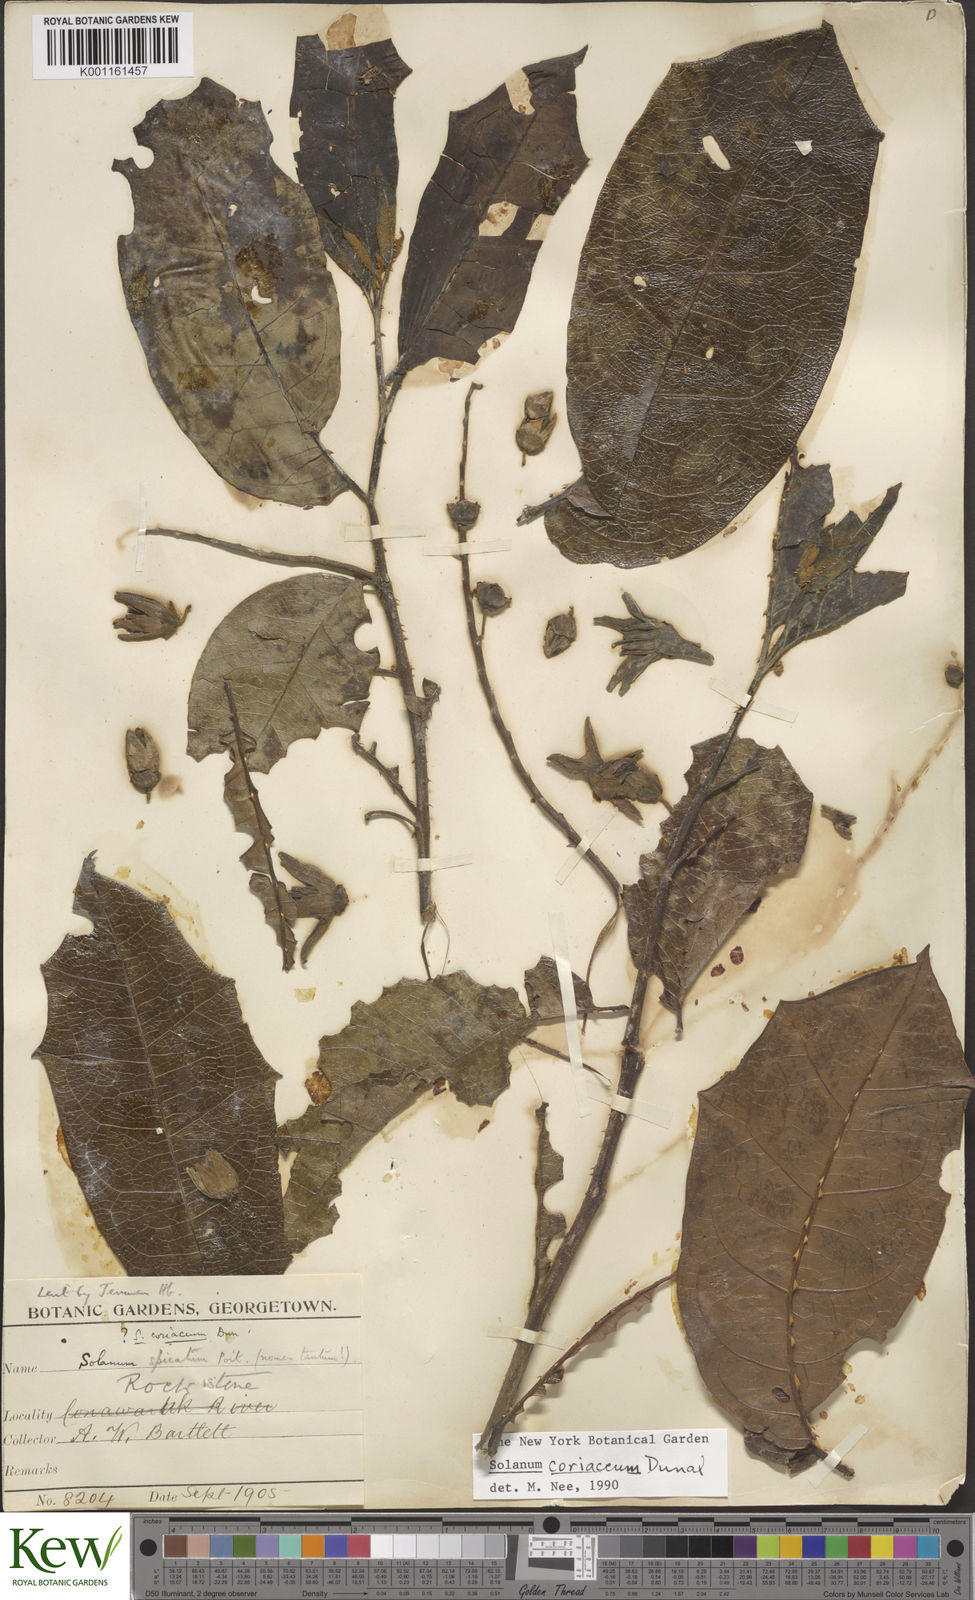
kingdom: Plantae
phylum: Tracheophyta
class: Magnoliopsida
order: Solanales
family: Solanaceae
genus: Solanum
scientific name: Solanum coriaceum
